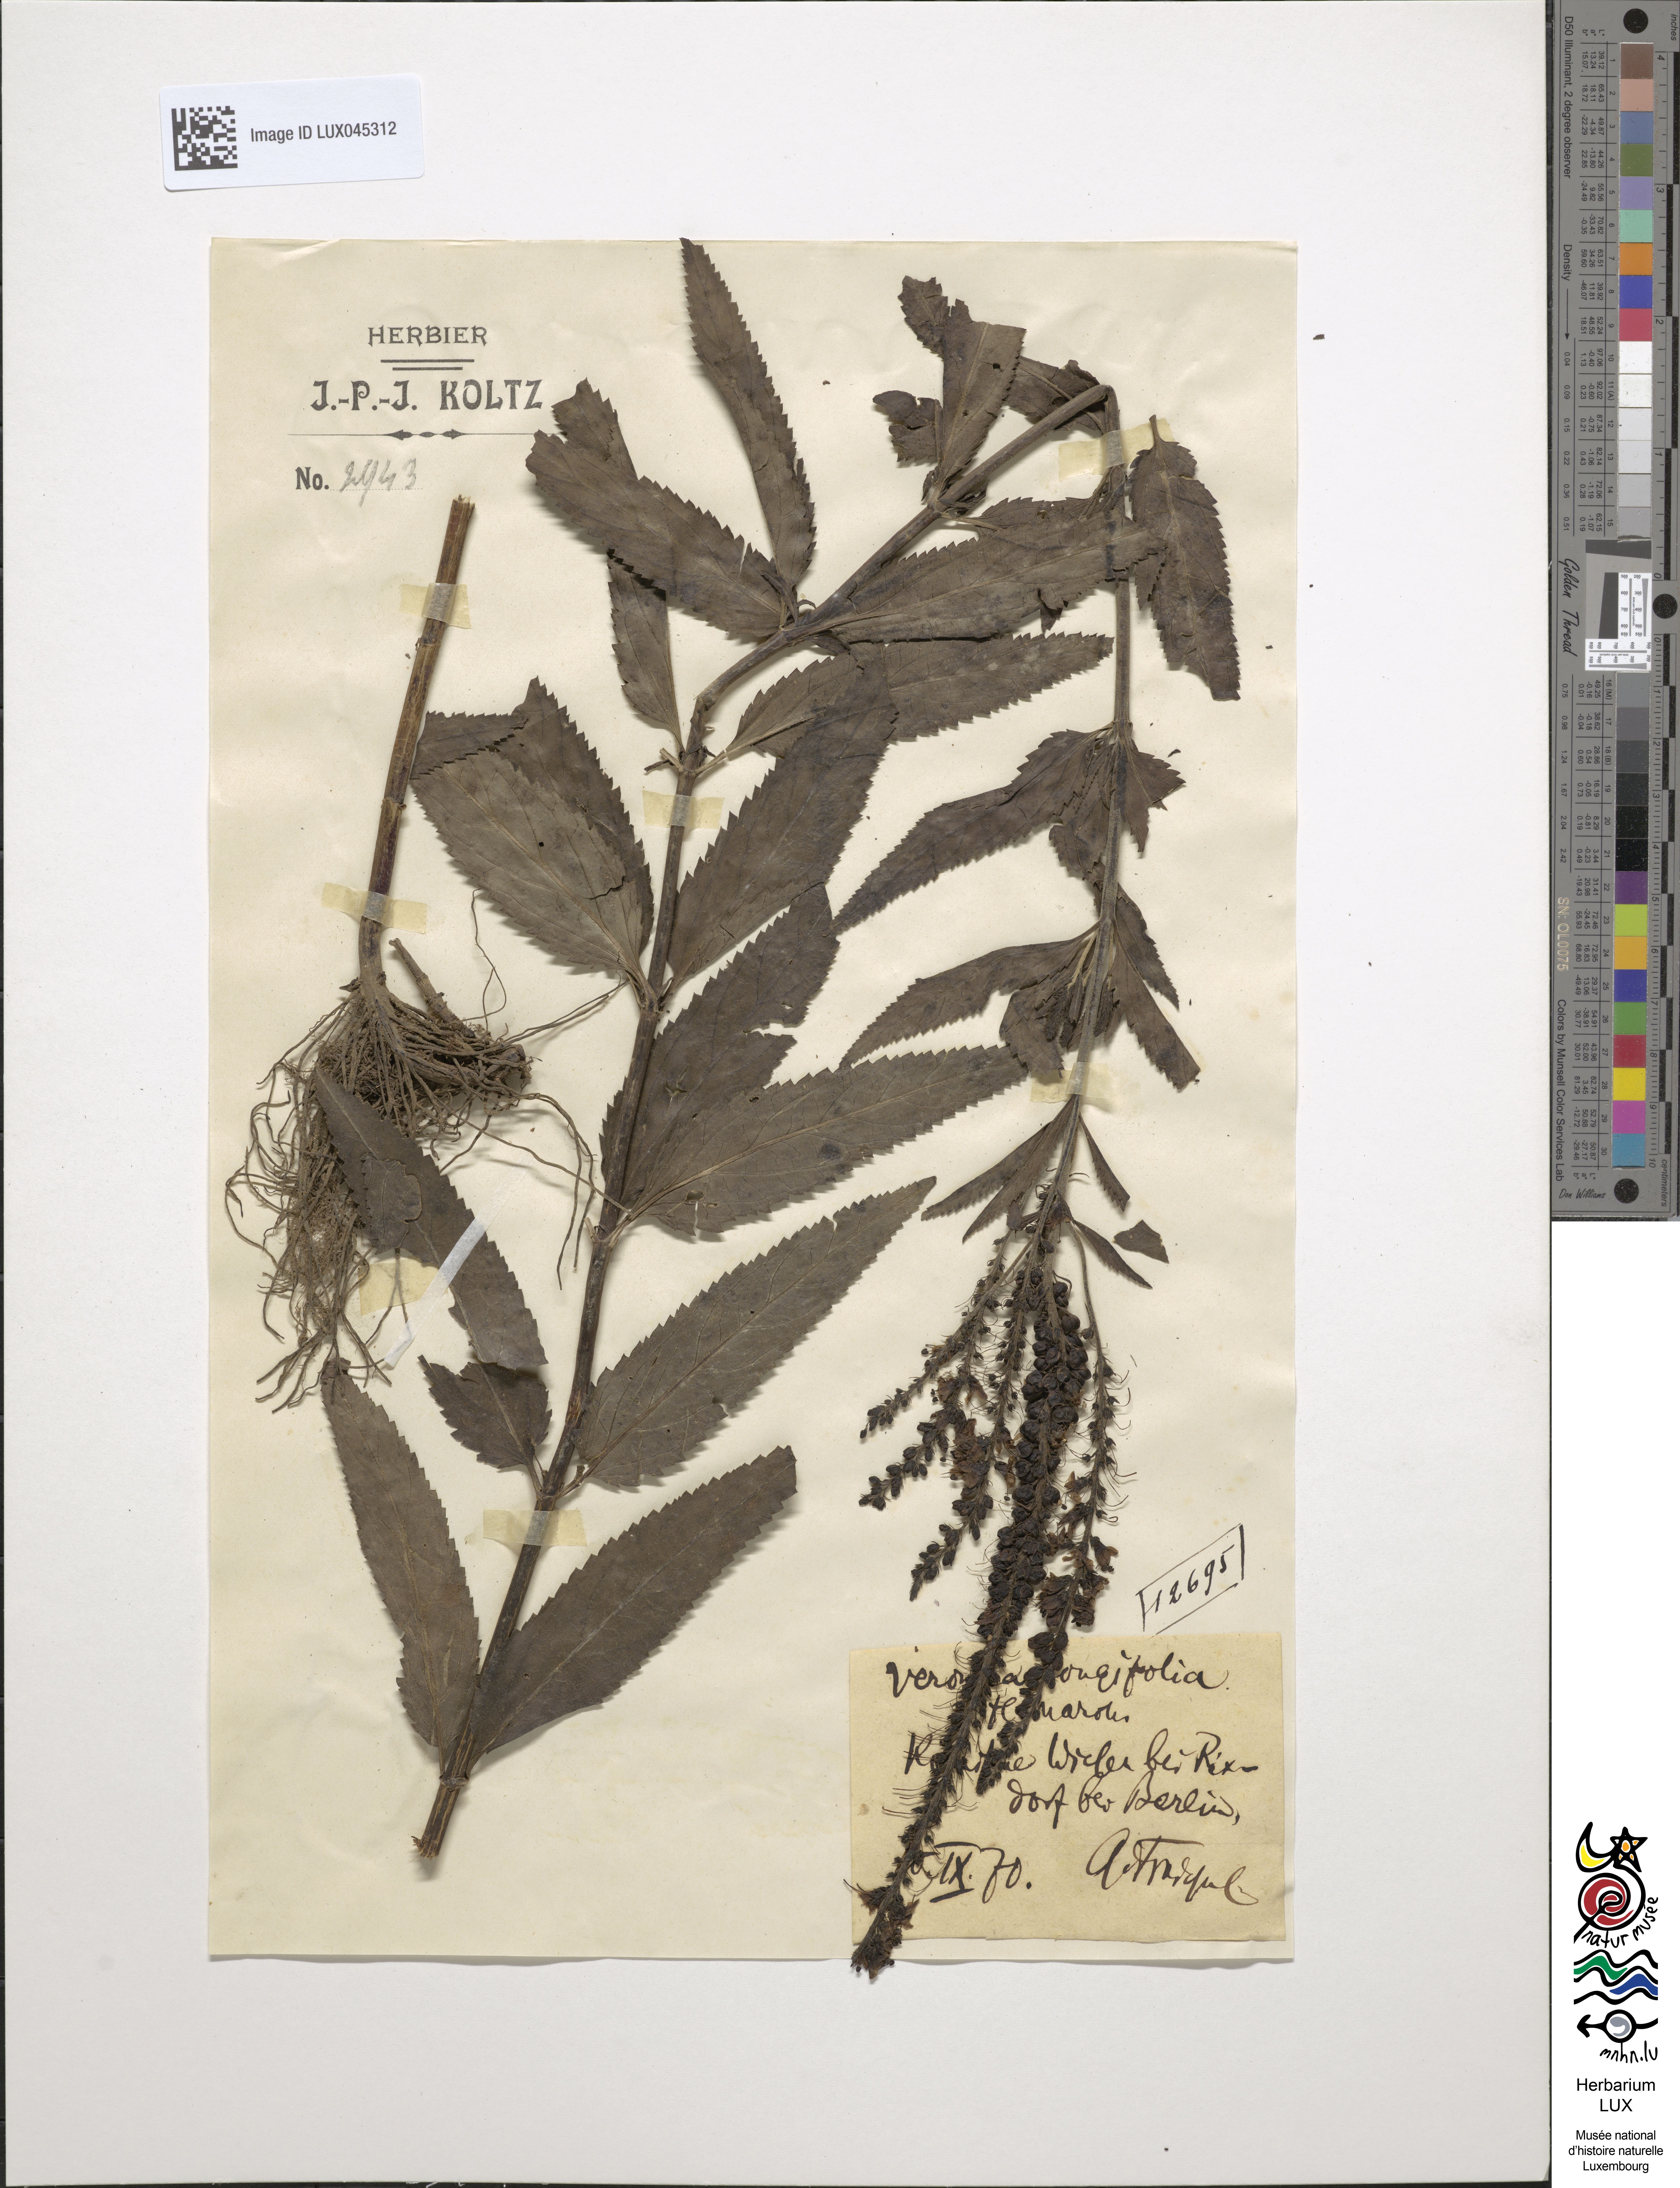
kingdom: Plantae
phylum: Tracheophyta
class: Magnoliopsida
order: Lamiales
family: Plantaginaceae
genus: Veronica
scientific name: Veronica longifolia
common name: Garden speedwell
